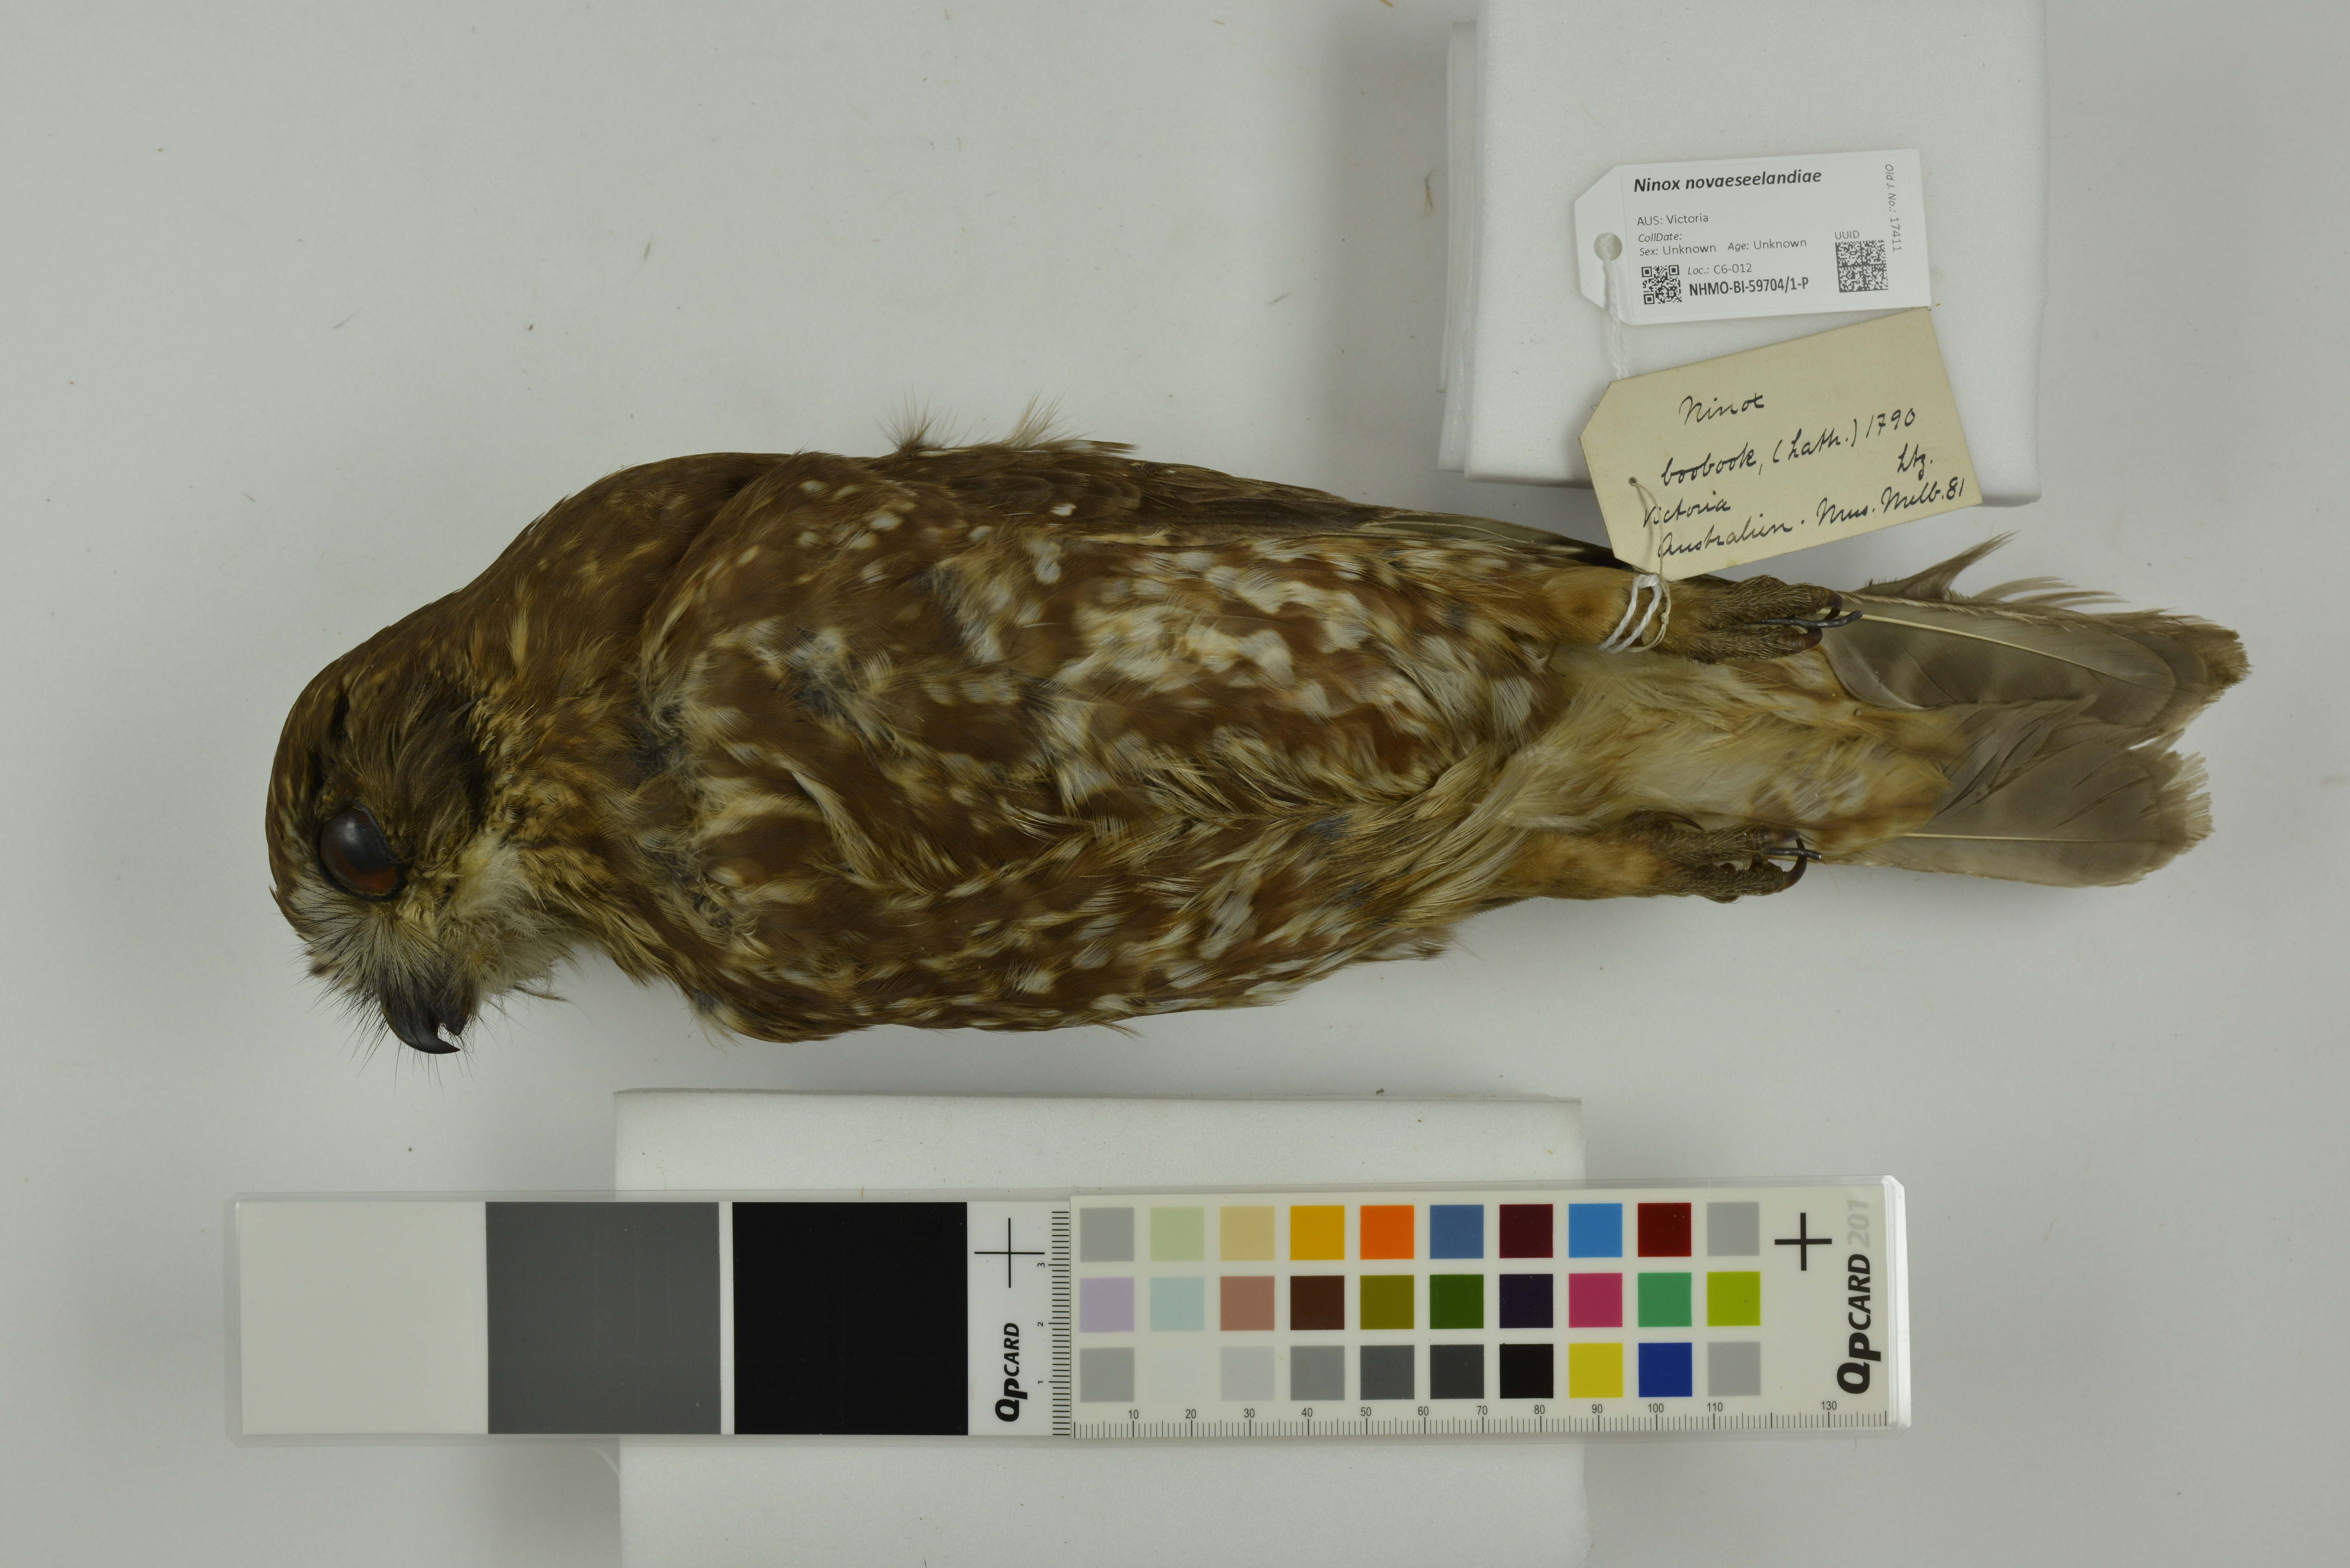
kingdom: Animalia
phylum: Chordata
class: Aves
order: Strigiformes
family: Strigidae
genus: Ninox
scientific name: Ninox novaeseelandiae
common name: Morepork
